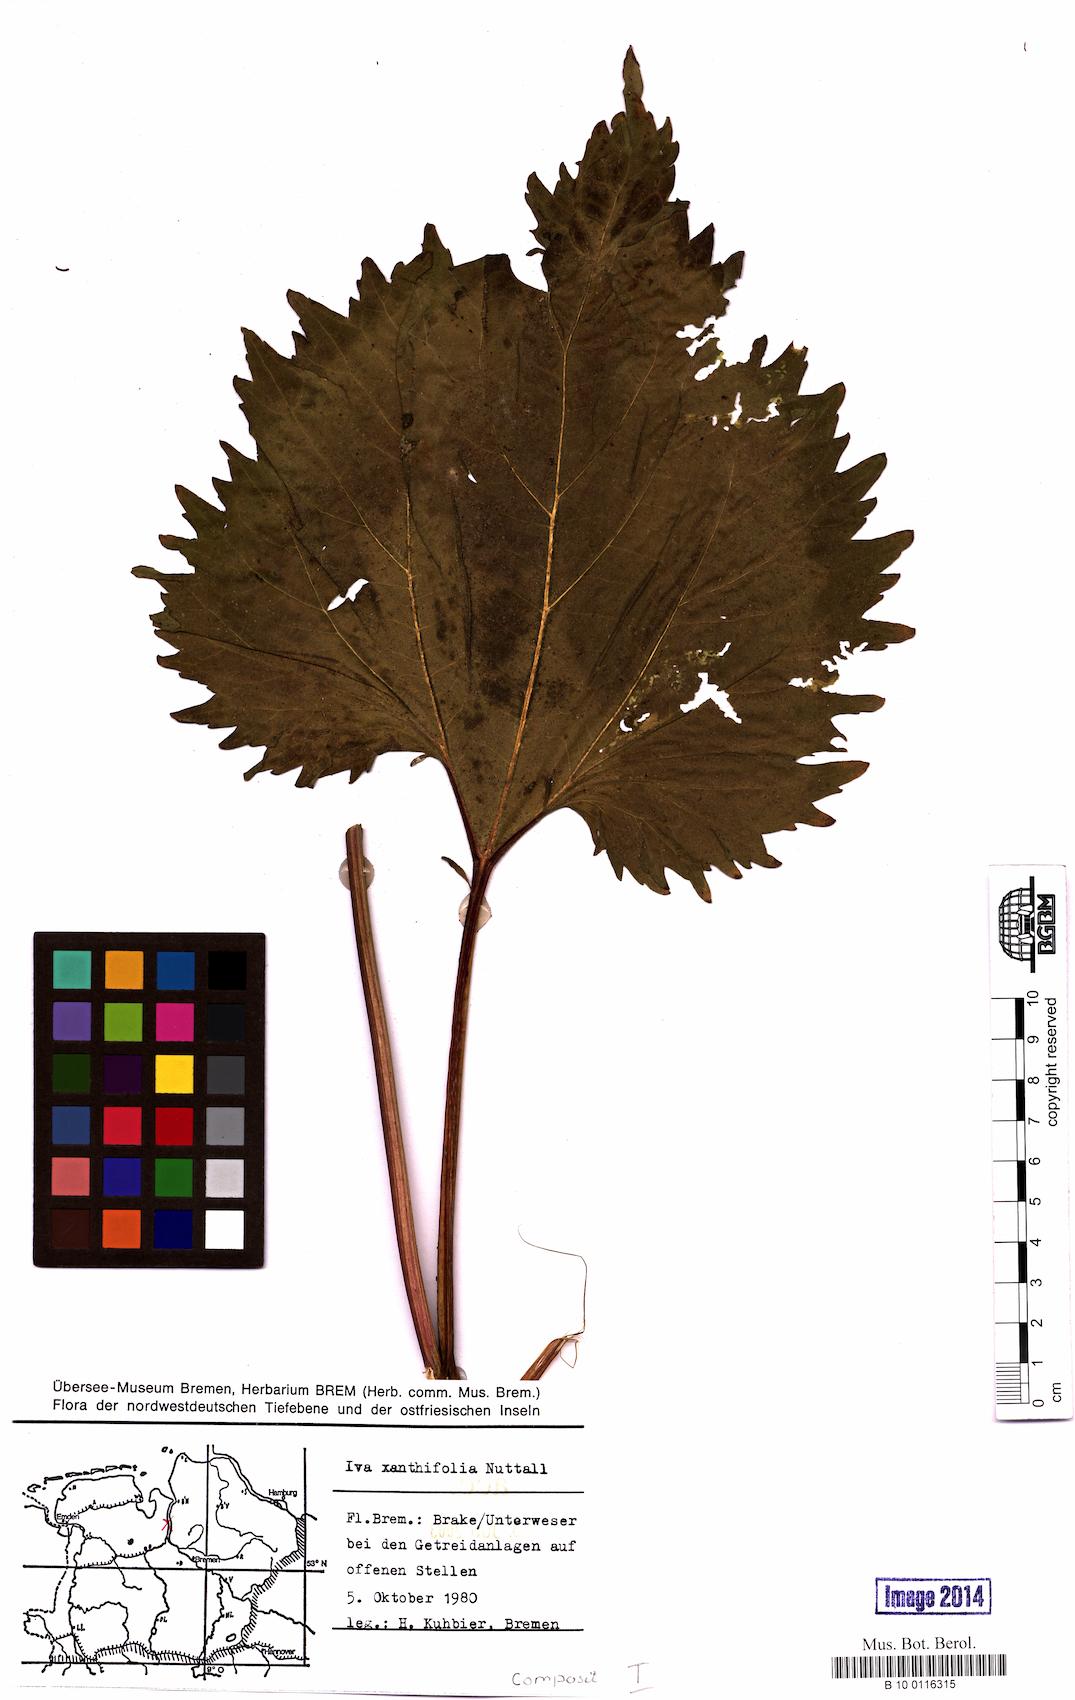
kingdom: Plantae
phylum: Tracheophyta
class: Magnoliopsida
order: Asterales
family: Asteraceae
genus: Cyclachaena
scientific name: Cyclachaena xanthiifolia
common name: Giant sumpweed
